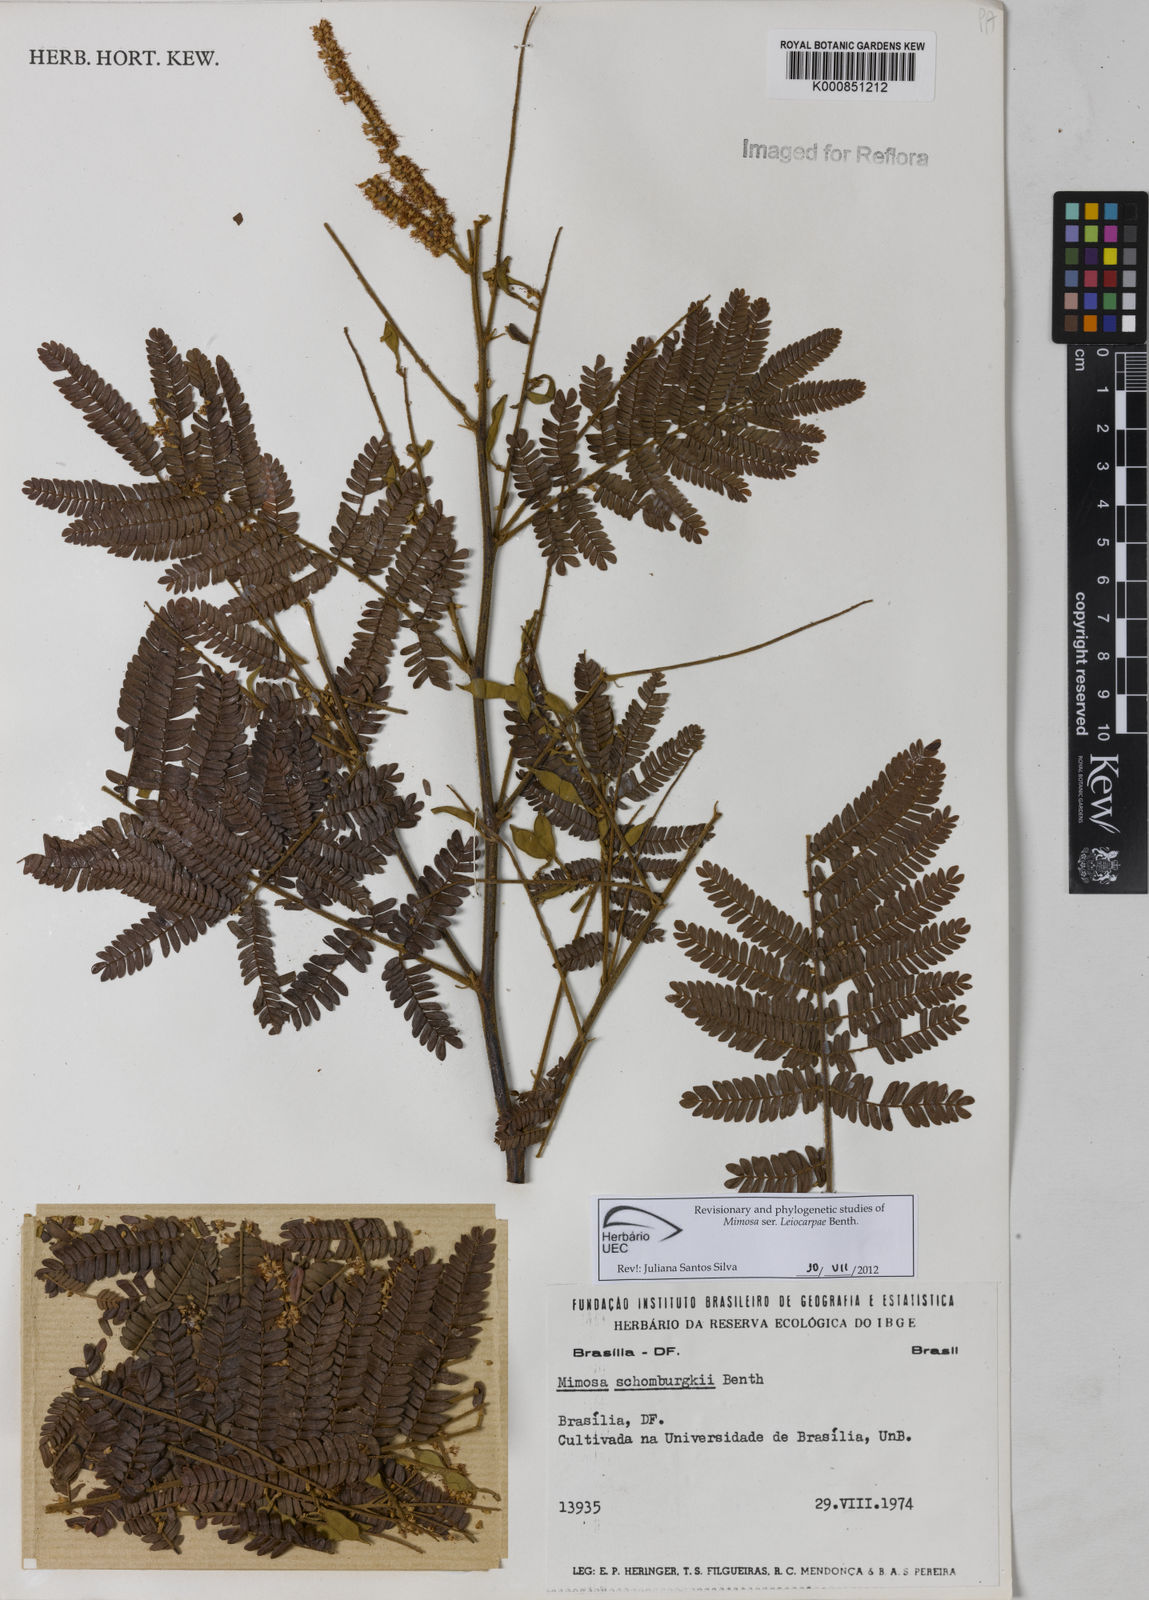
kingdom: Plantae
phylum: Tracheophyta
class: Magnoliopsida
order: Fabales
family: Fabaceae
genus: Mimosa
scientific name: Mimosa schomburgkii
